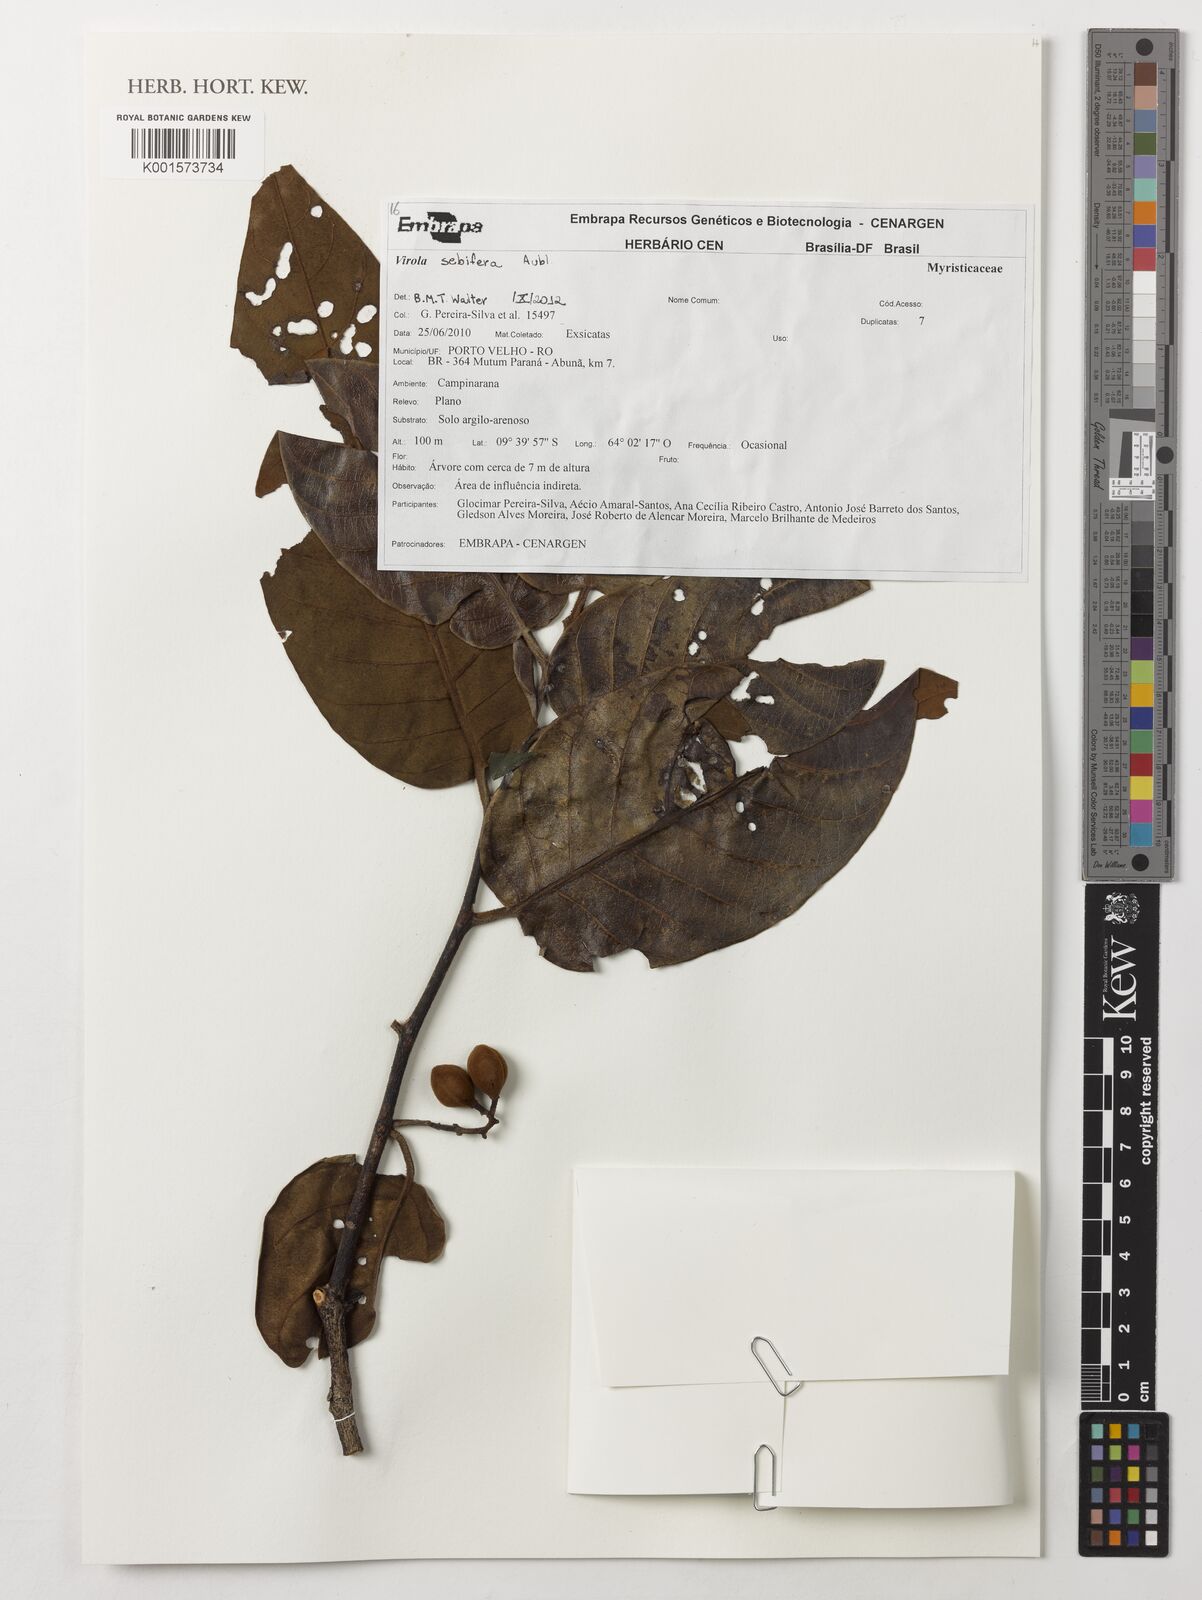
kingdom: Plantae
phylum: Tracheophyta
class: Magnoliopsida
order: Magnoliales
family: Myristicaceae
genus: Virola
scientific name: Virola sebifera
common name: Red ucuuba
